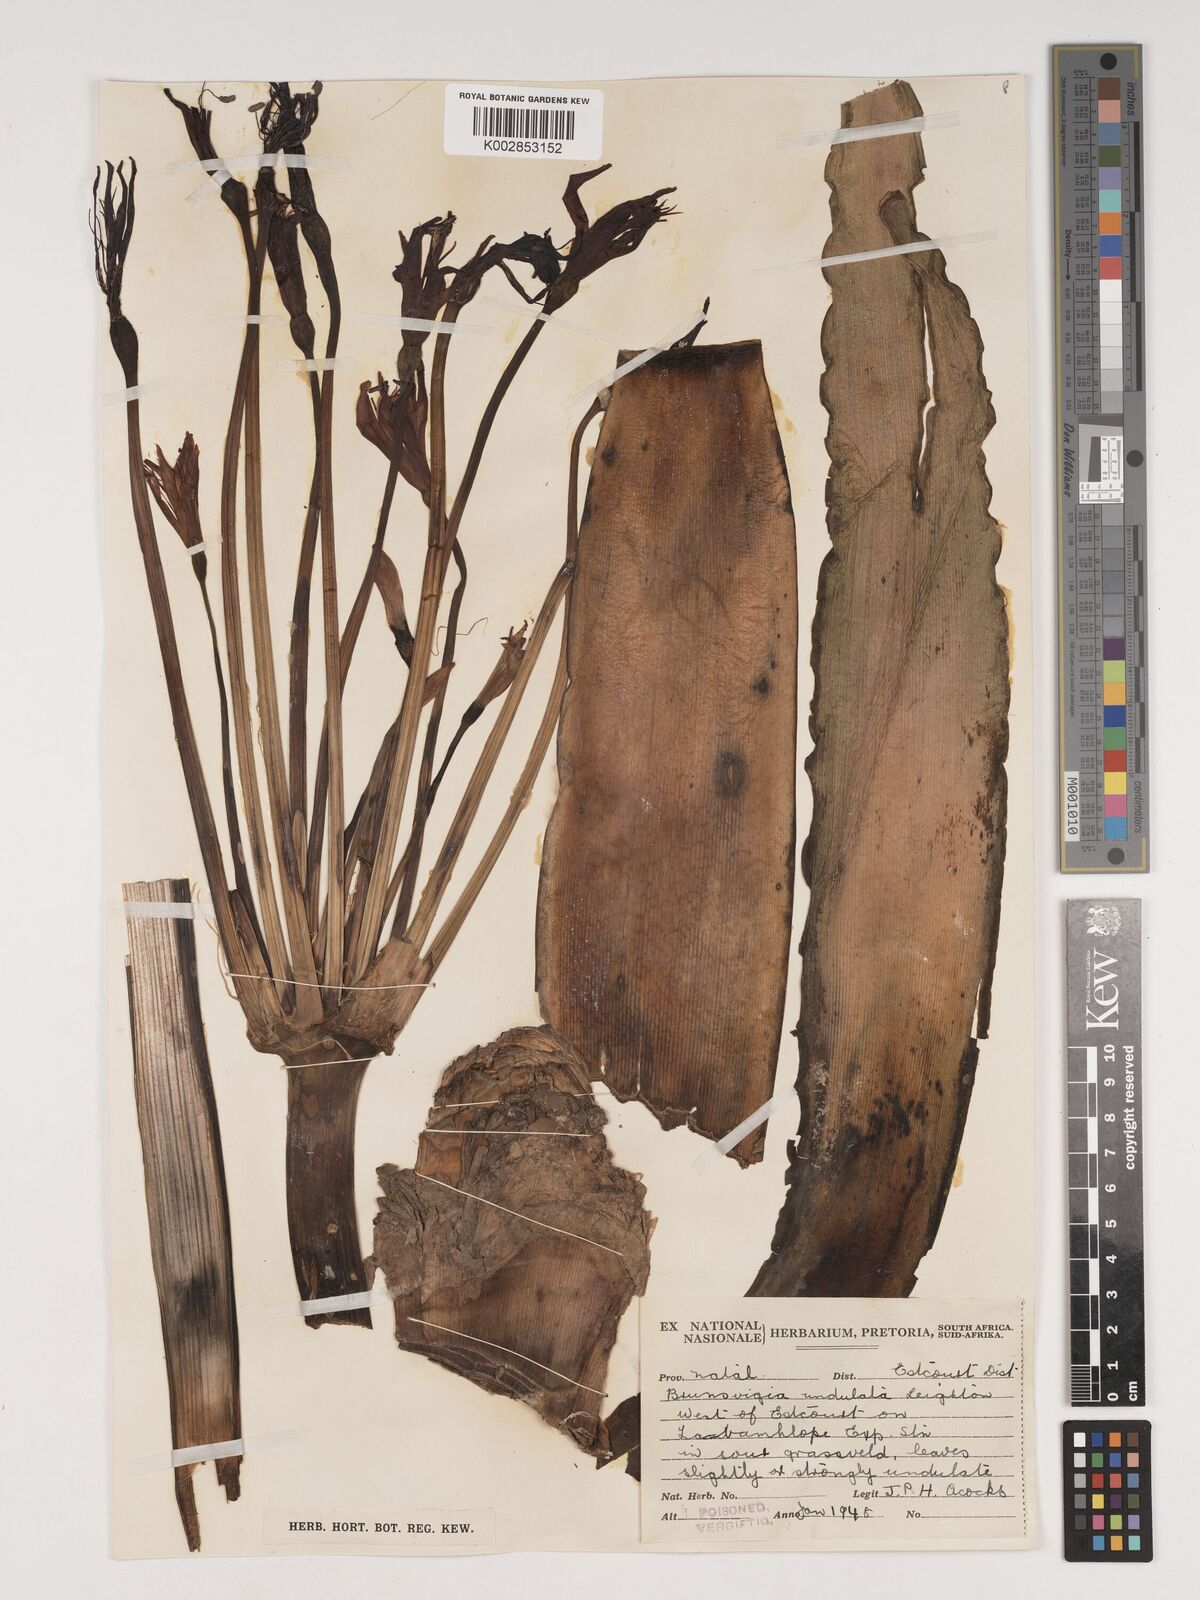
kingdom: Plantae
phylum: Tracheophyta
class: Liliopsida
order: Asparagales
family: Amaryllidaceae
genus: Brunsvigia
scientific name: Brunsvigia undulata
